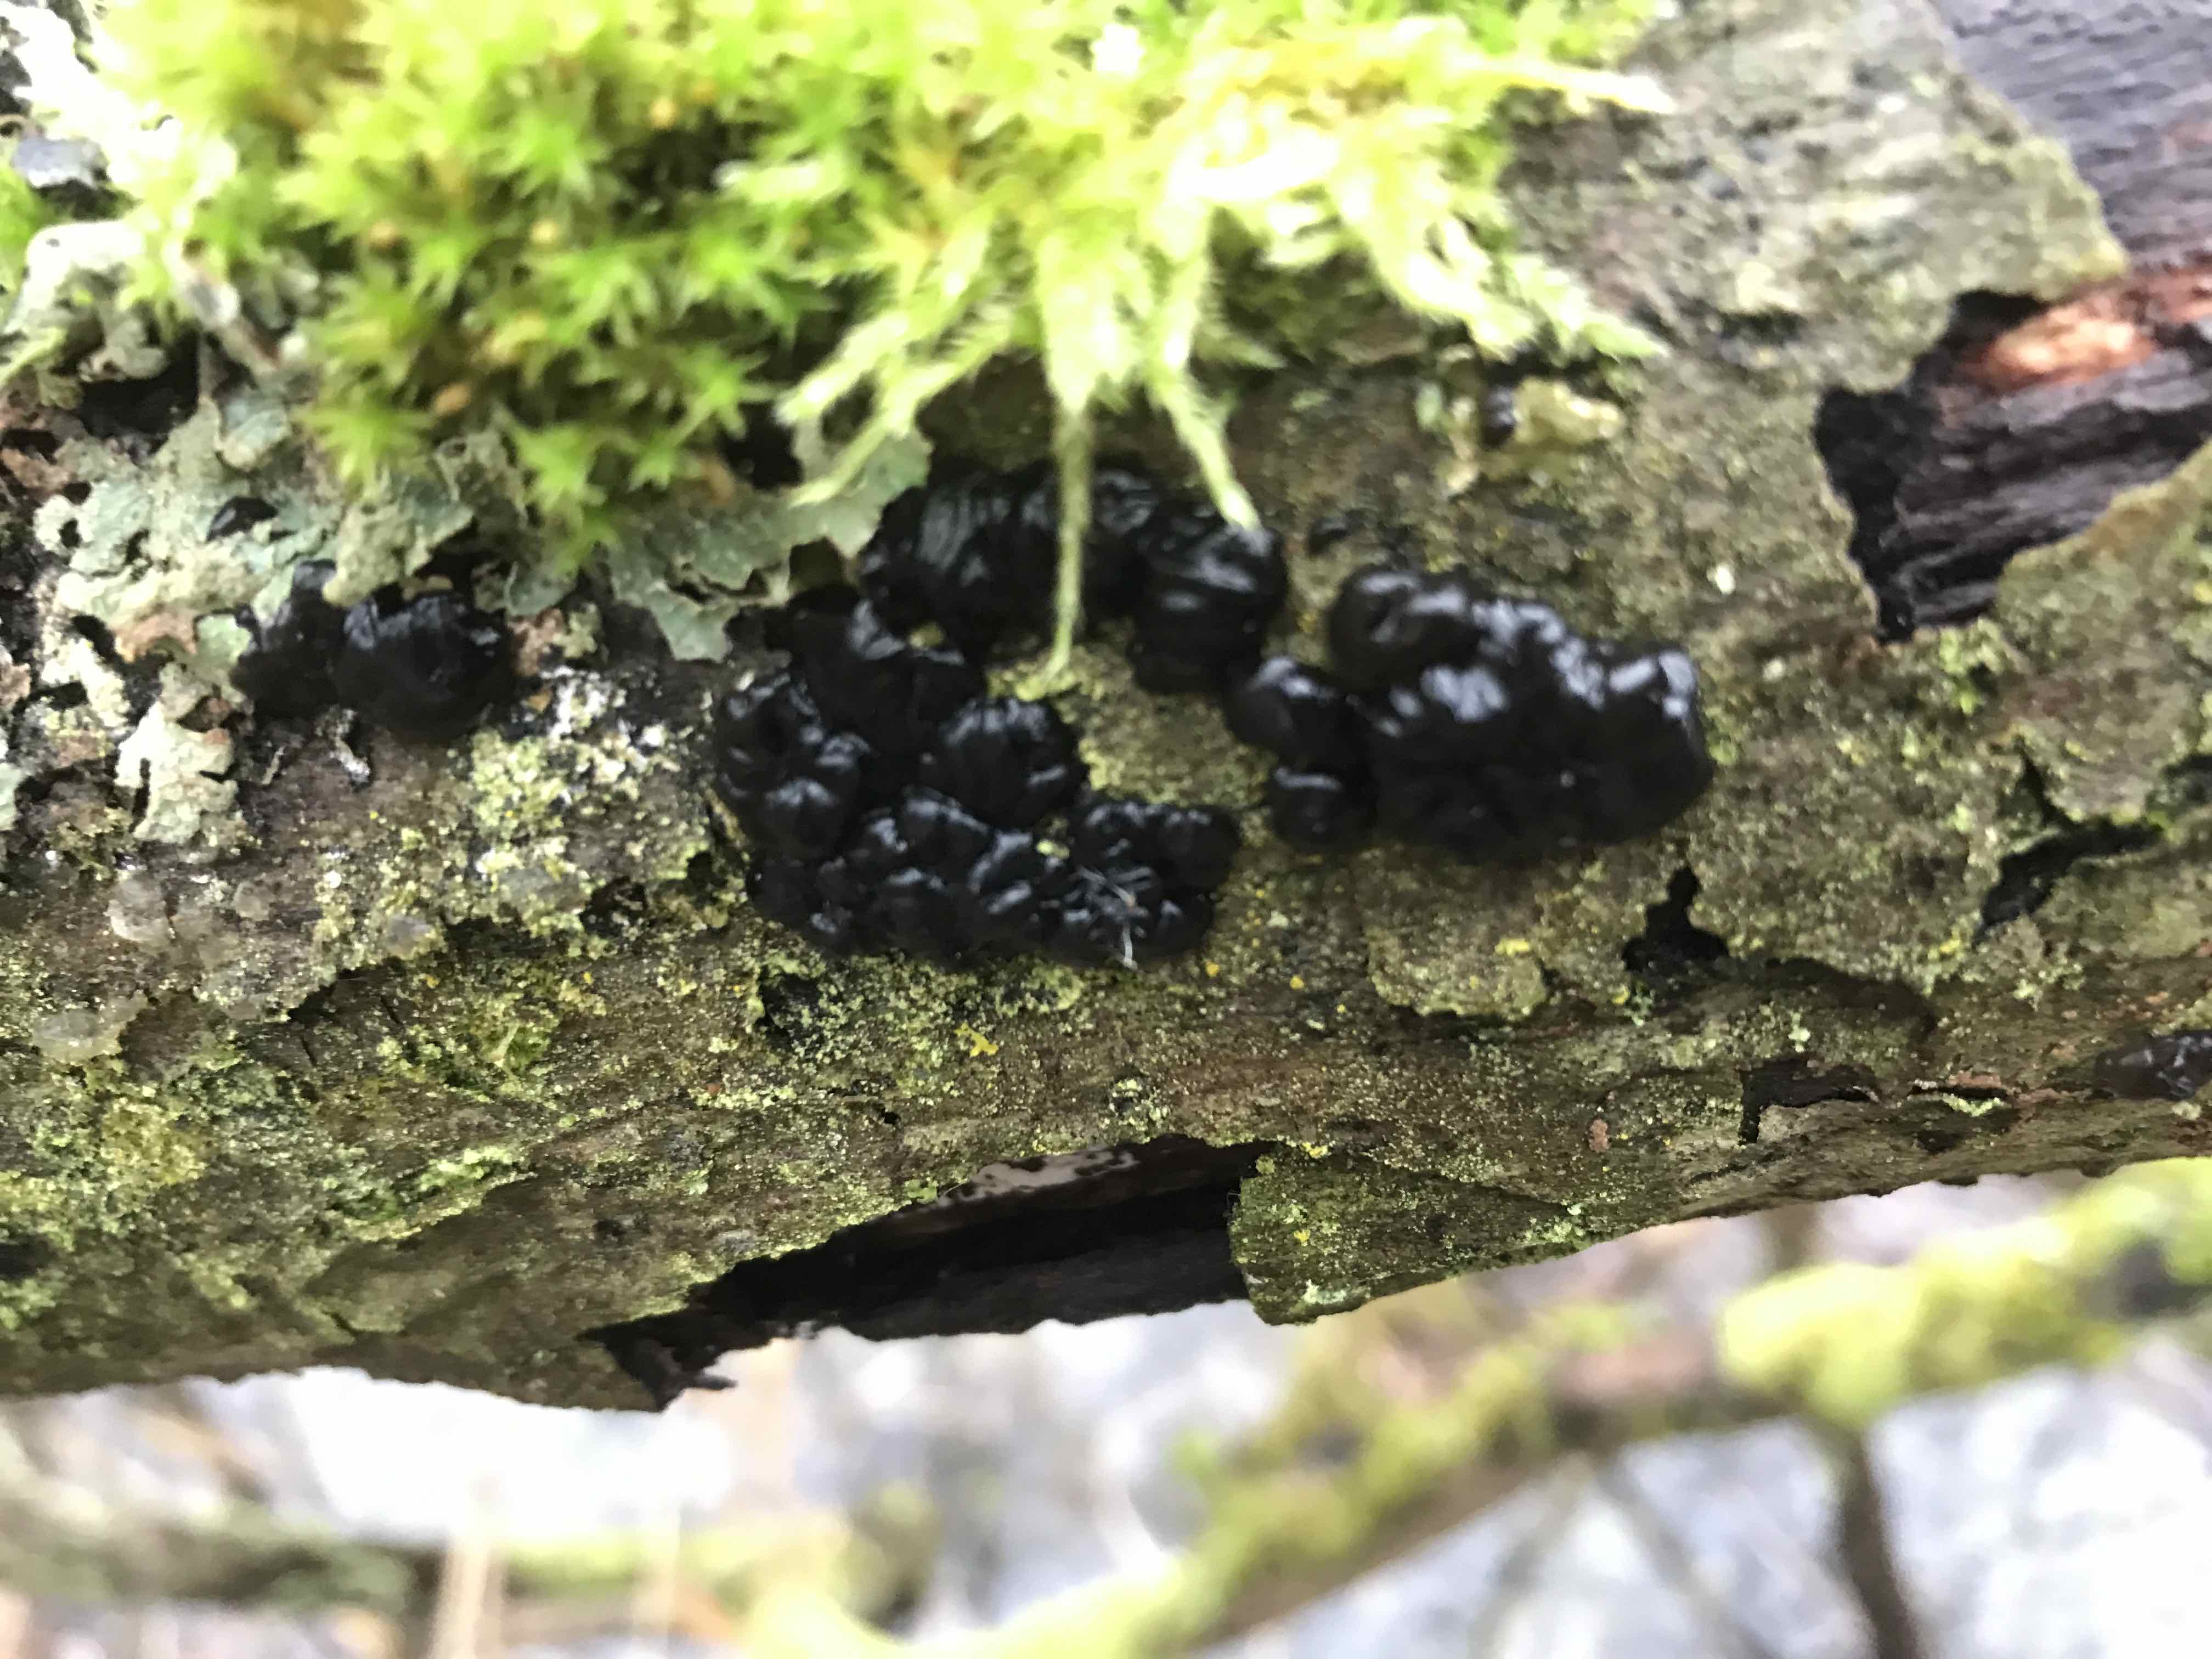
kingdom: Fungi
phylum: Basidiomycota
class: Agaricomycetes
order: Auriculariales
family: Auriculariaceae
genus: Exidia
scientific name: Exidia nigricans
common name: almindelig bævretop
